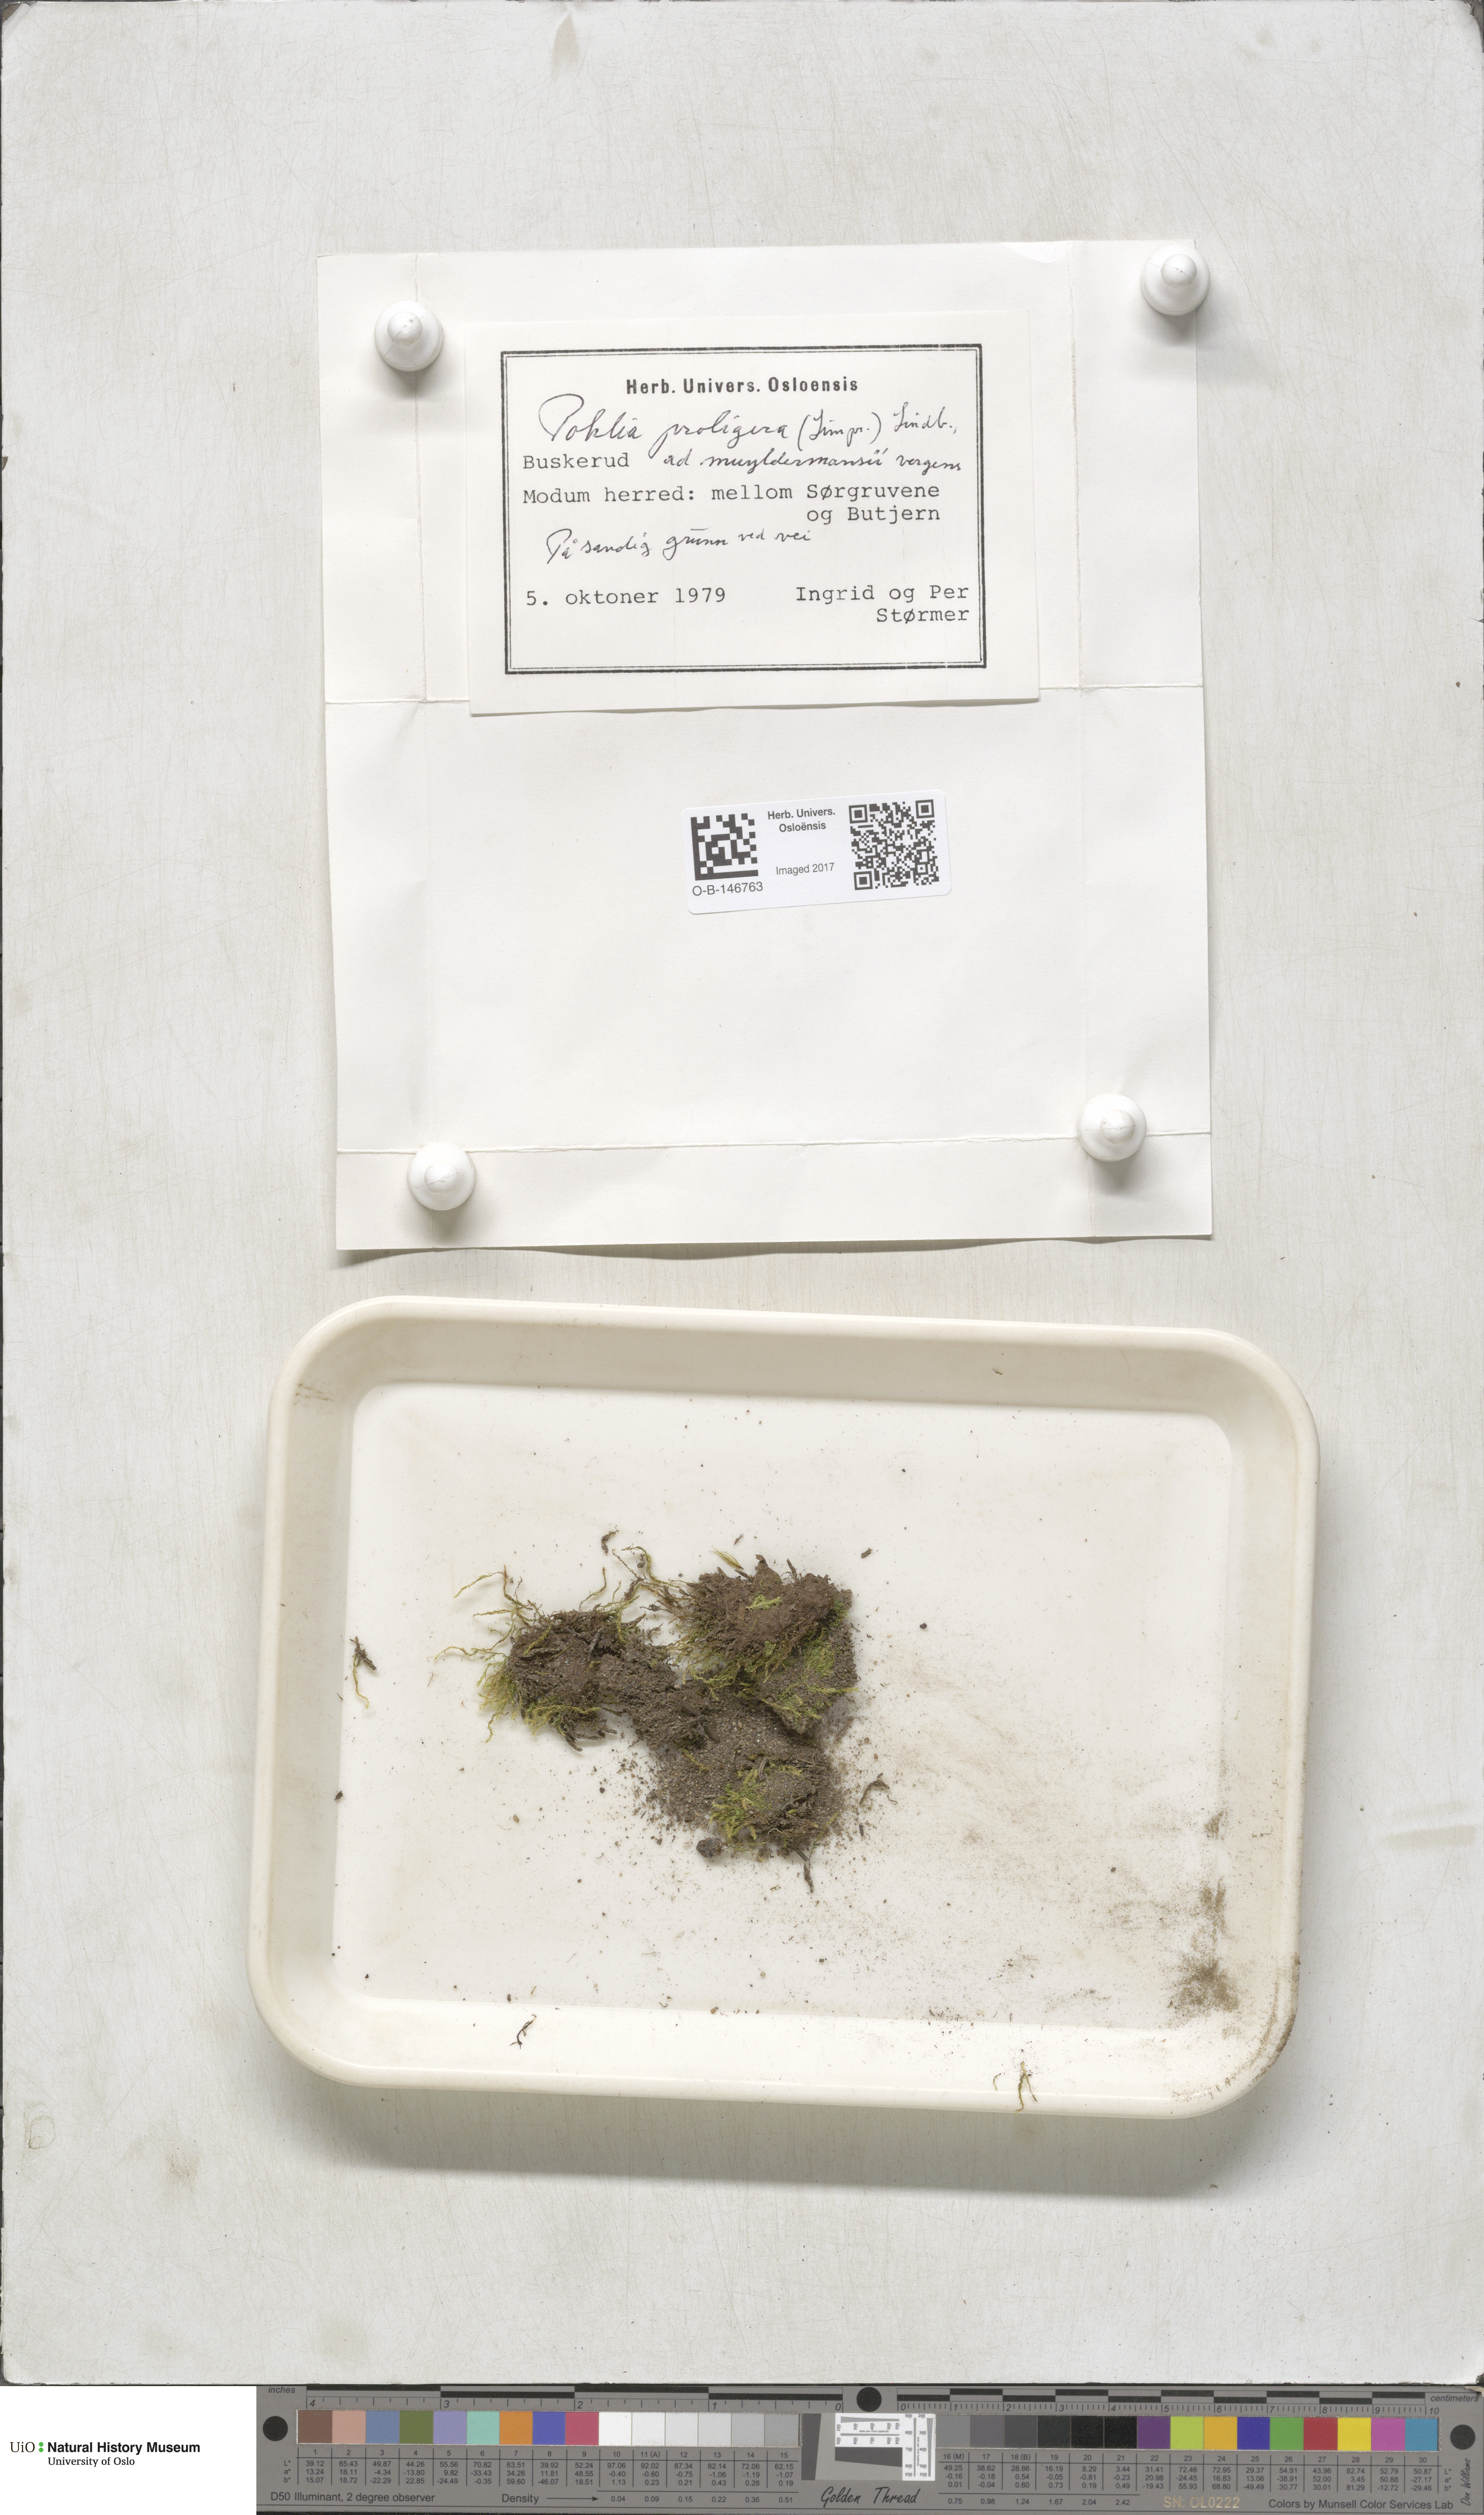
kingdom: Plantae
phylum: Bryophyta
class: Bryopsida
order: Bryales
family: Mniaceae
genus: Pohlia
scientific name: Pohlia proligera
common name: Cottony nodding moss
